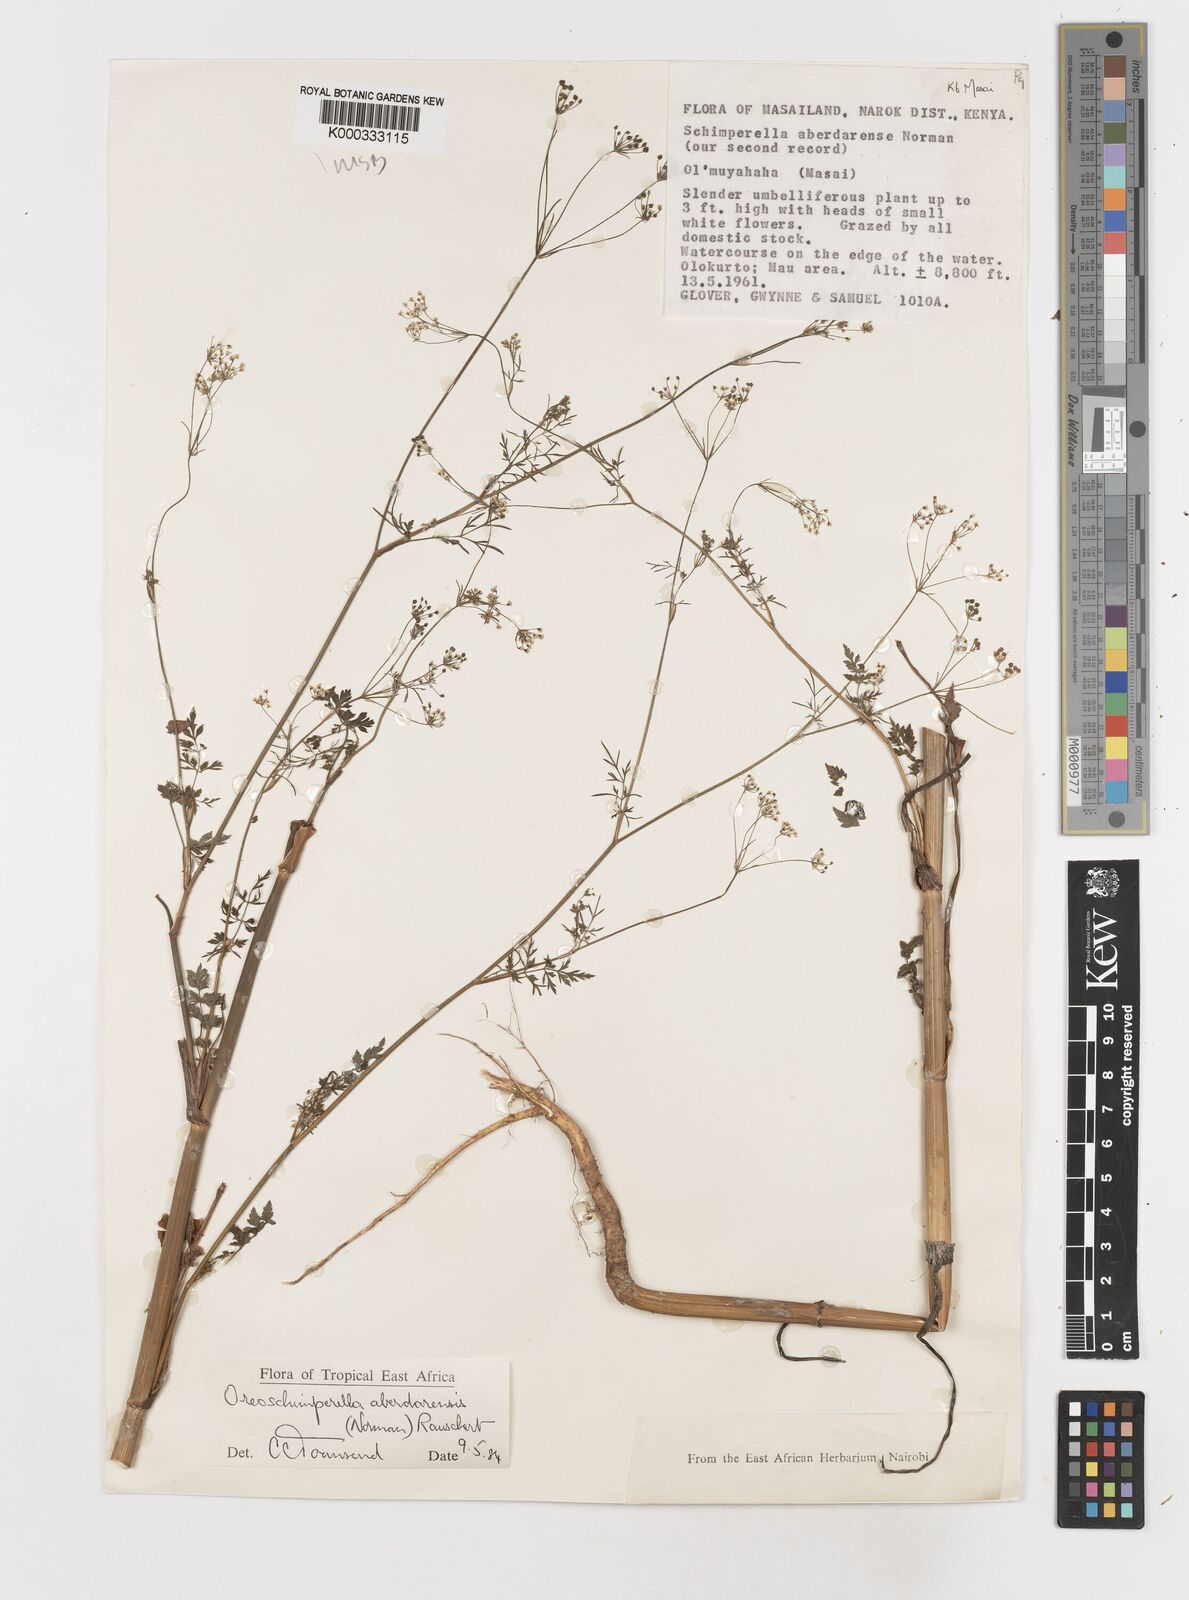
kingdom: Plantae
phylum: Tracheophyta
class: Magnoliopsida
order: Apiales
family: Apiaceae
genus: Oreoschimperella
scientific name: Oreoschimperella aberdarensis
